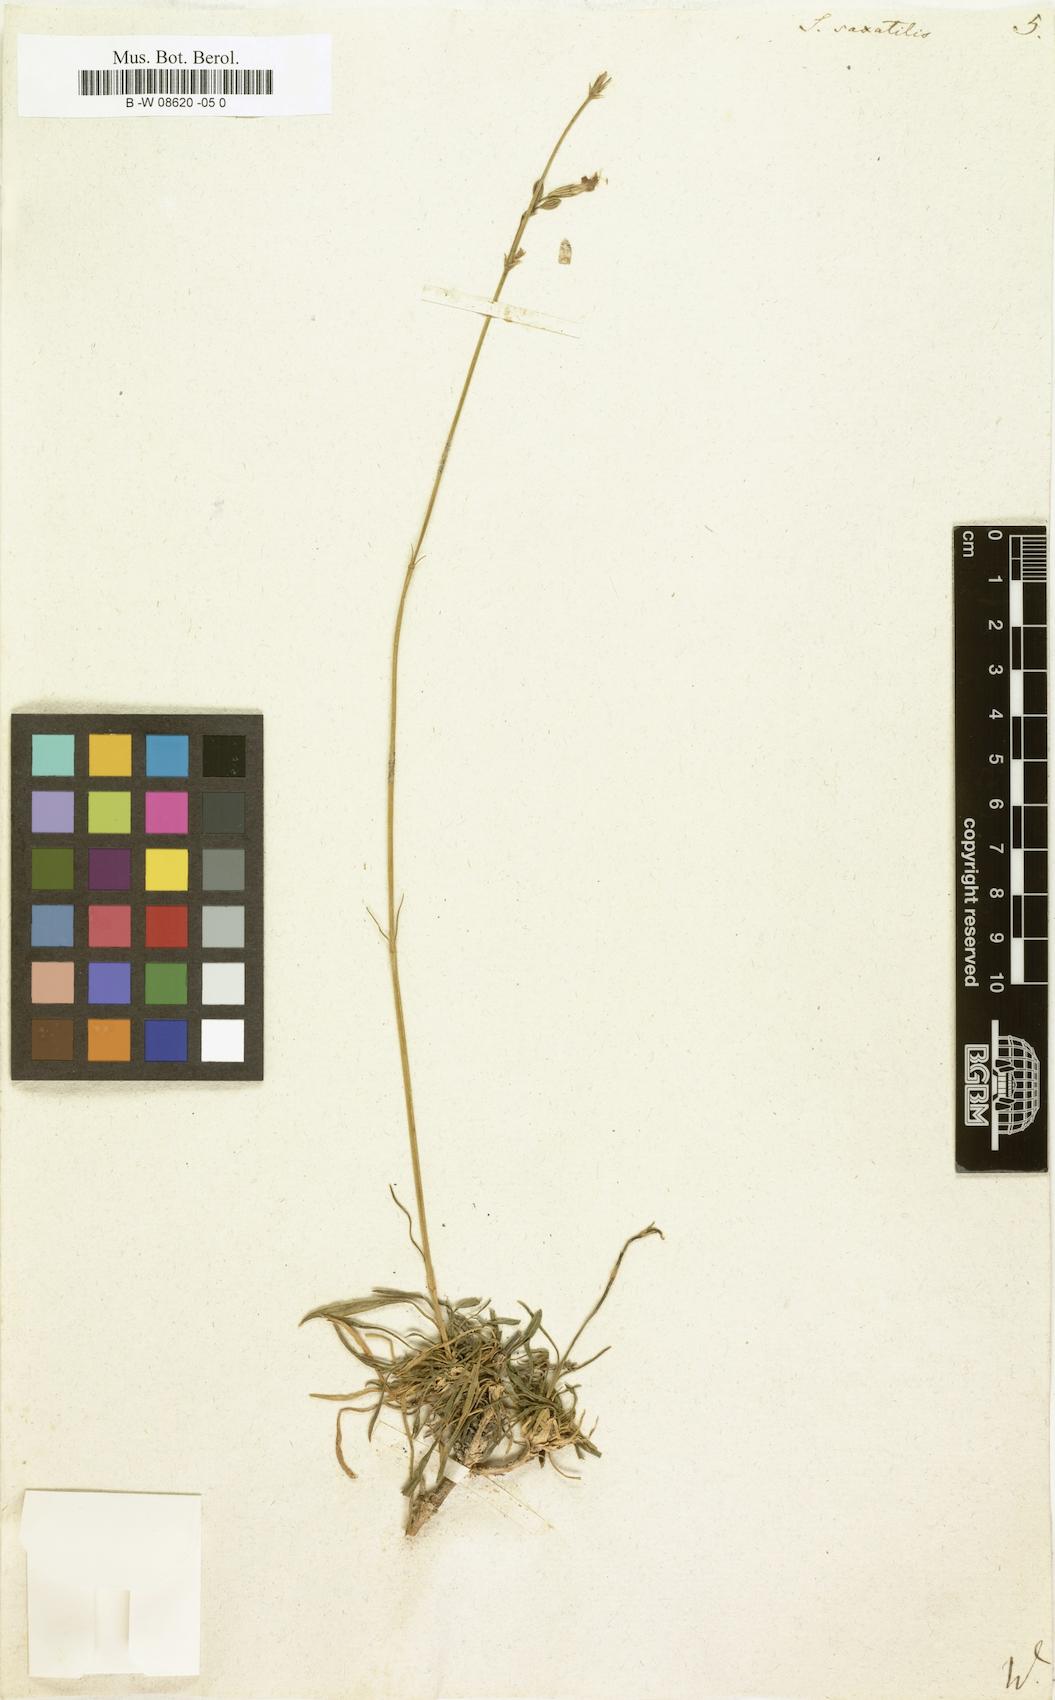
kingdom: Plantae
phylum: Tracheophyta
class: Magnoliopsida
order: Caryophyllales
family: Caryophyllaceae
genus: Silene
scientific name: Silene saxatilis
